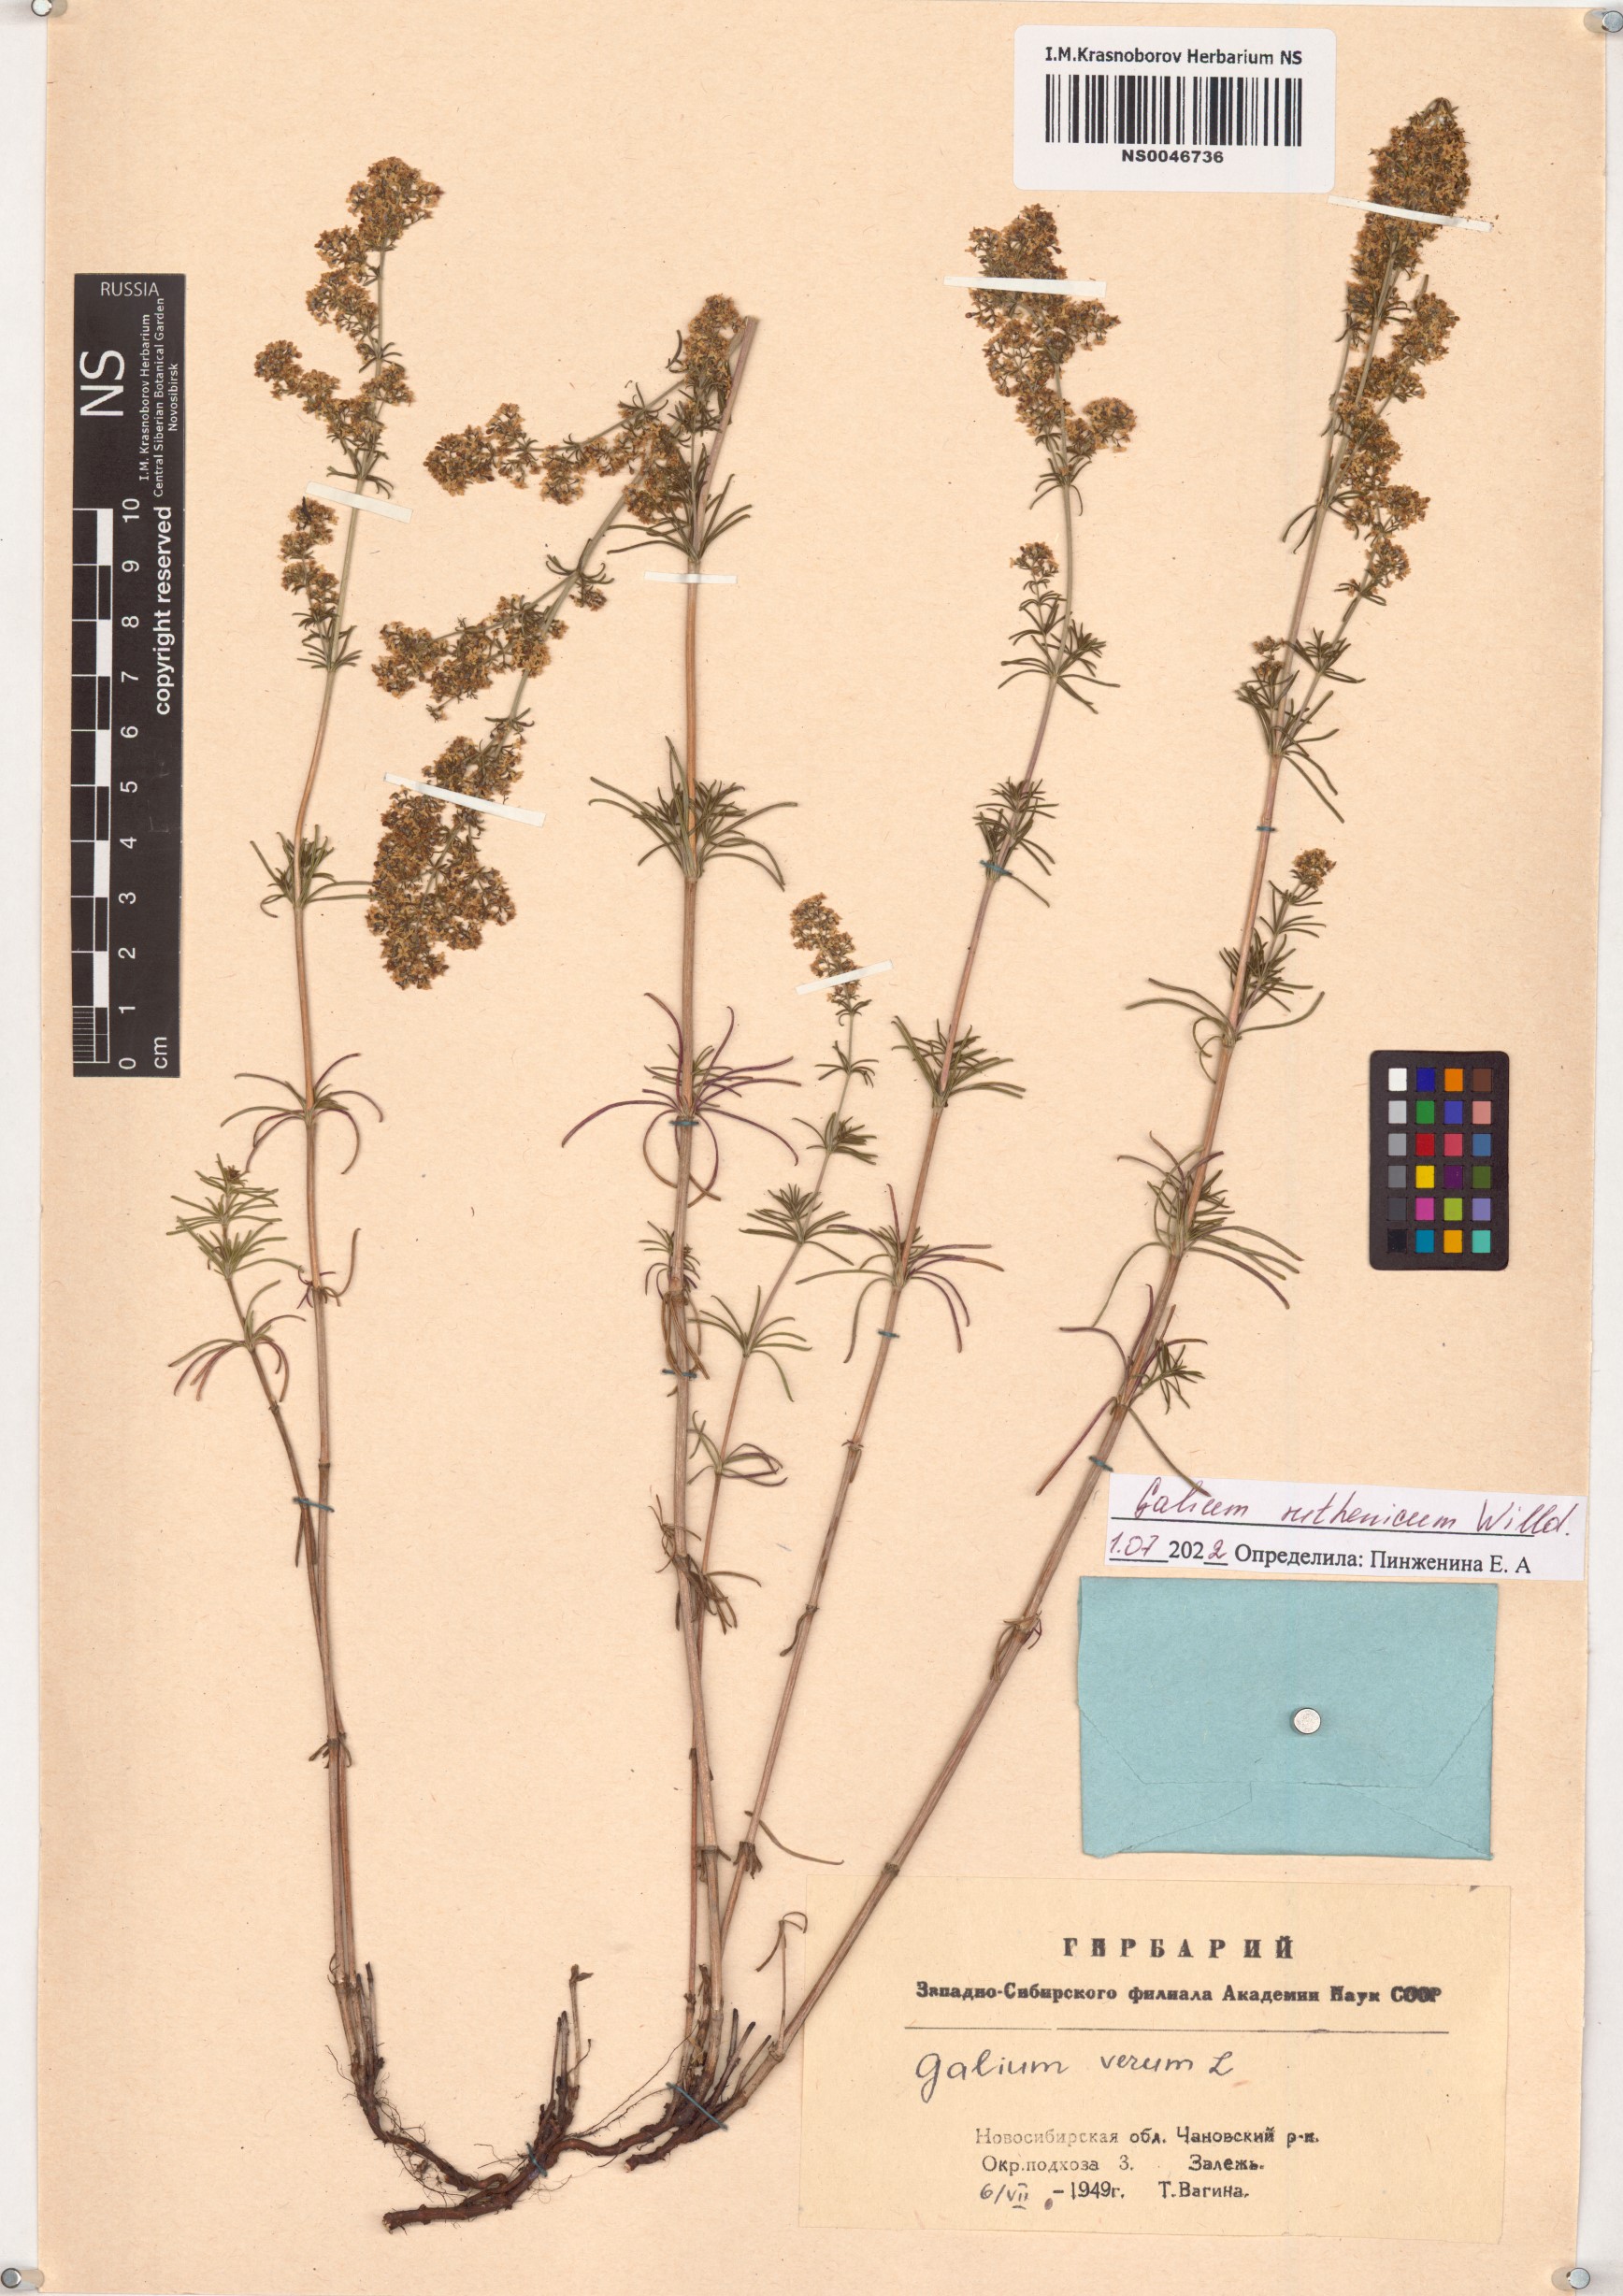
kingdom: Plantae
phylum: Tracheophyta
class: Magnoliopsida
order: Gentianales
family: Rubiaceae
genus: Galium
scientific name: Galium verum
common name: Lady's bedstraw
